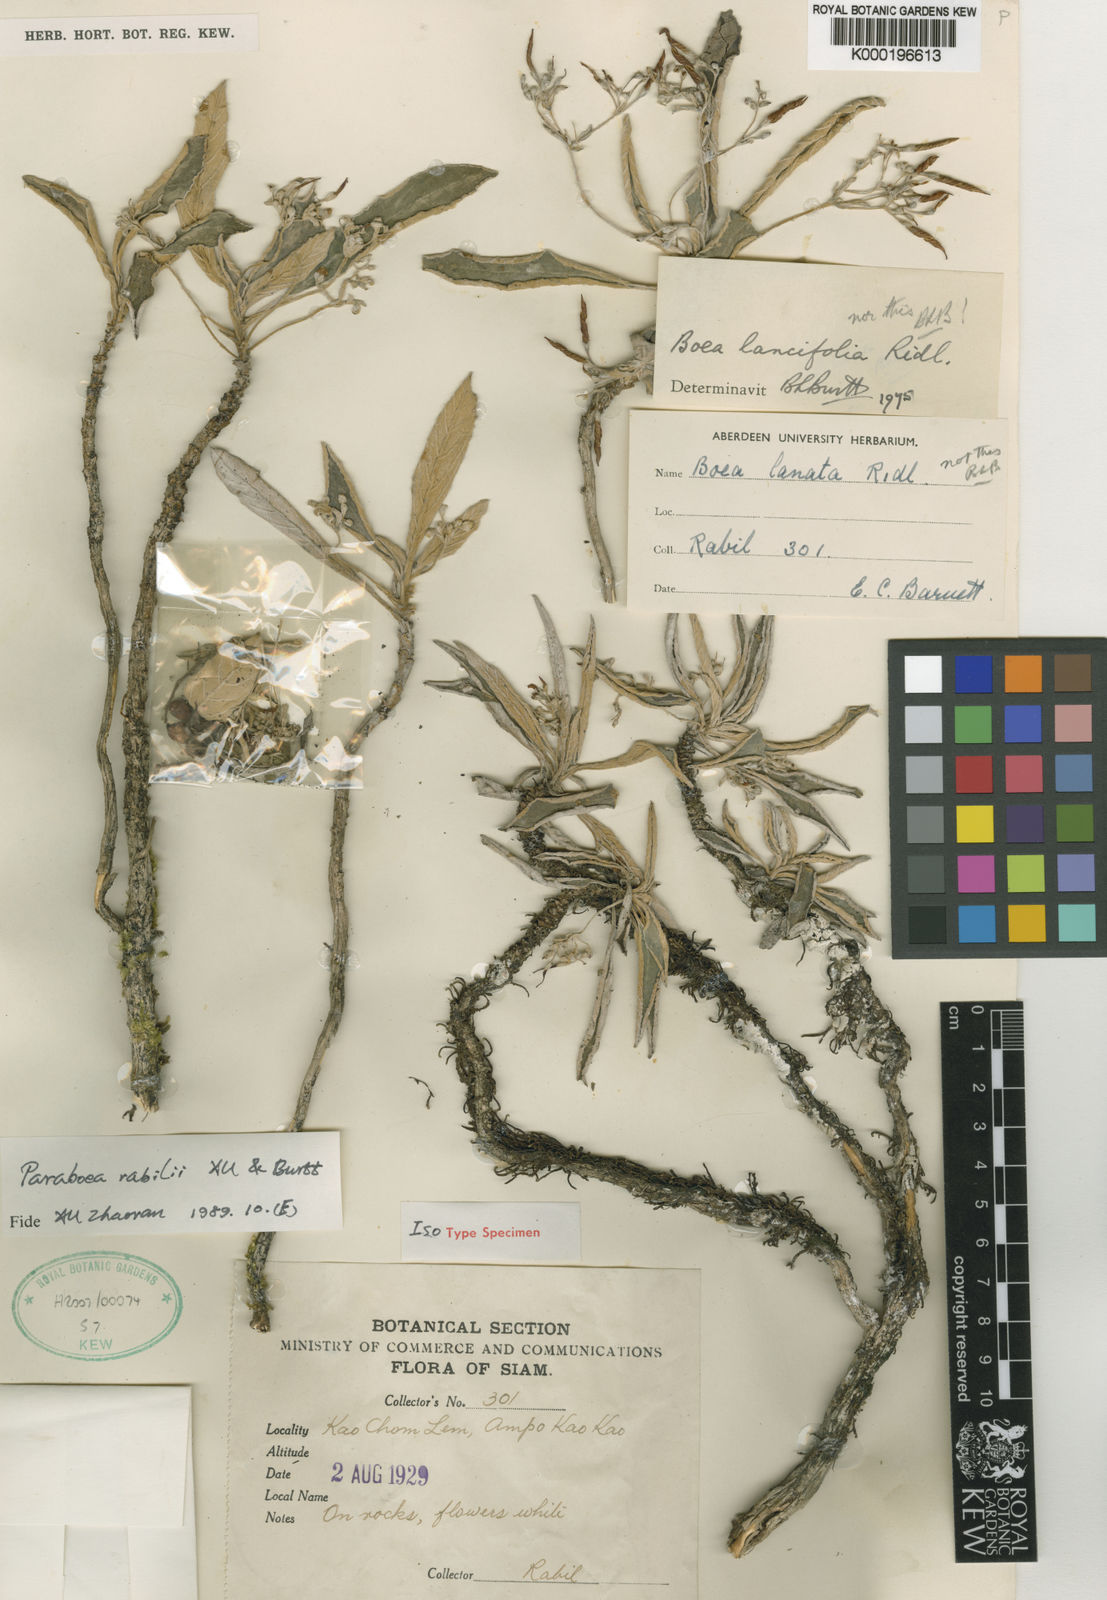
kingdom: Plantae
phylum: Tracheophyta
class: Magnoliopsida
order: Lamiales
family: Gesneriaceae
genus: Paraboea
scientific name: Paraboea rabilii
